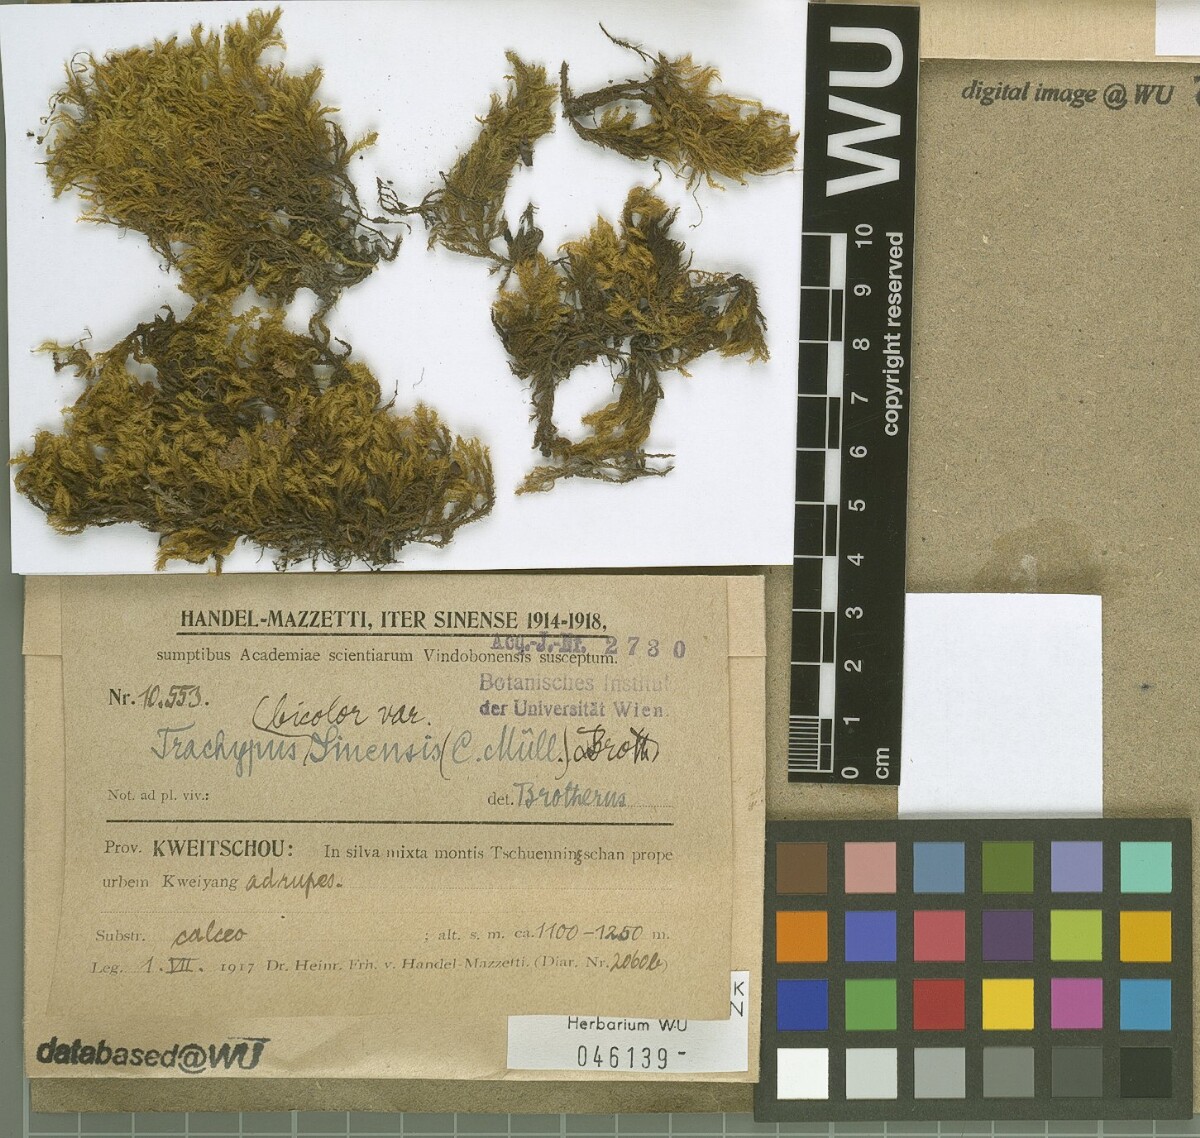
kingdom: Plantae
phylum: Bryophyta
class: Bryopsida
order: Hypnales
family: Meteoriaceae
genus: Trachypus
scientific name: Trachypus bicolor
